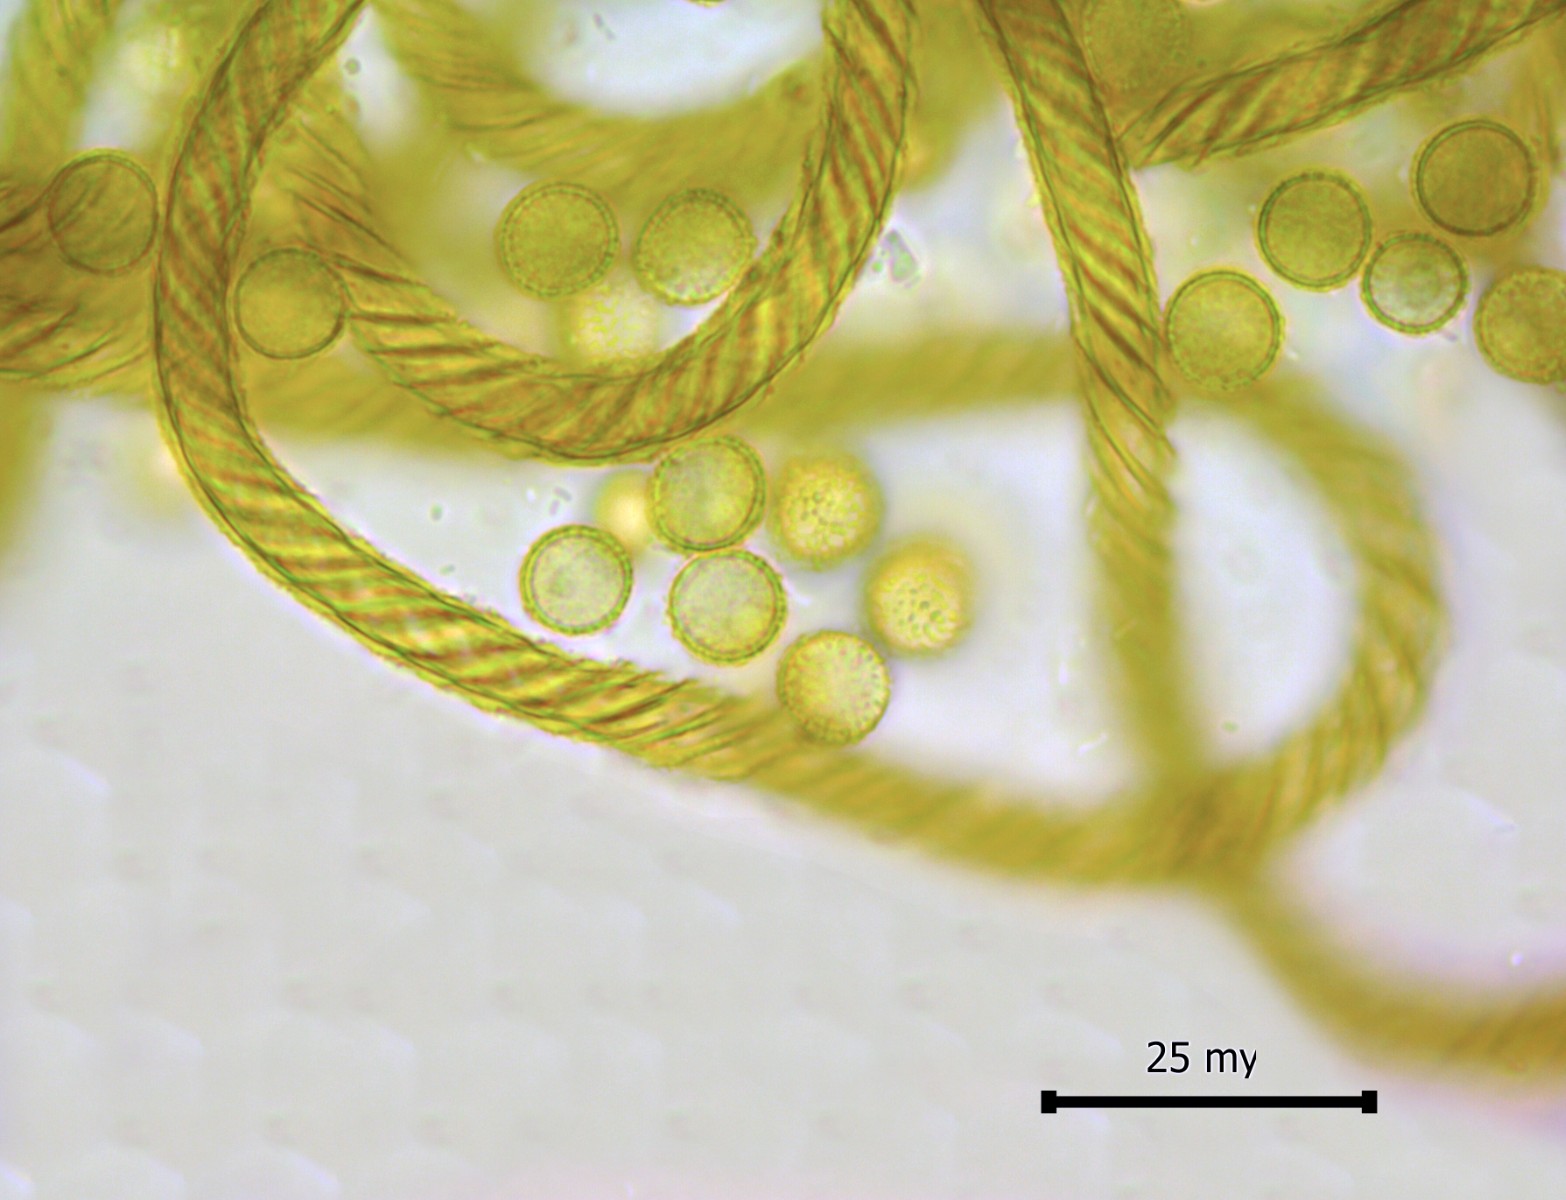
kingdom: Protozoa
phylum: Mycetozoa
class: Myxomycetes
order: Trichiales
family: Arcyriaceae
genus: Hemitrichia
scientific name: Hemitrichia clavata
